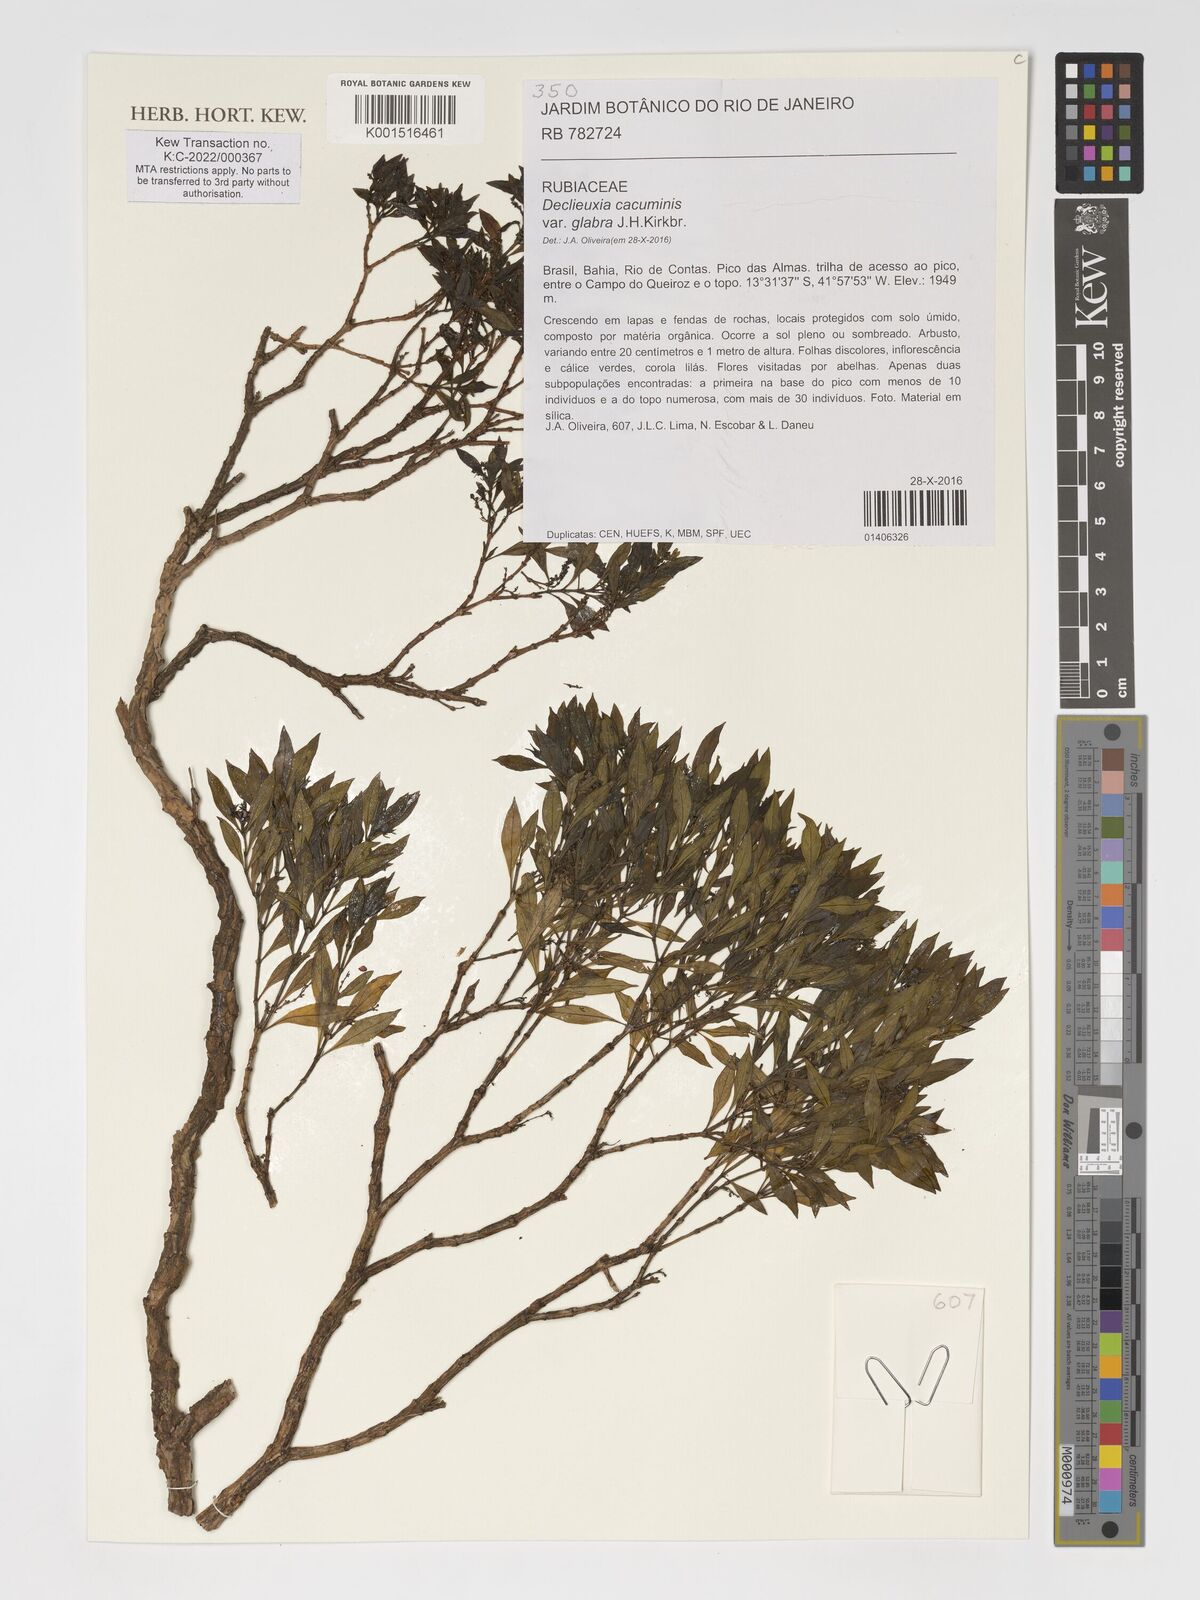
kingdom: Plantae
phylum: Tracheophyta
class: Magnoliopsida
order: Gentianales
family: Rubiaceae
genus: Declieuxia
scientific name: Declieuxia cacuminis
